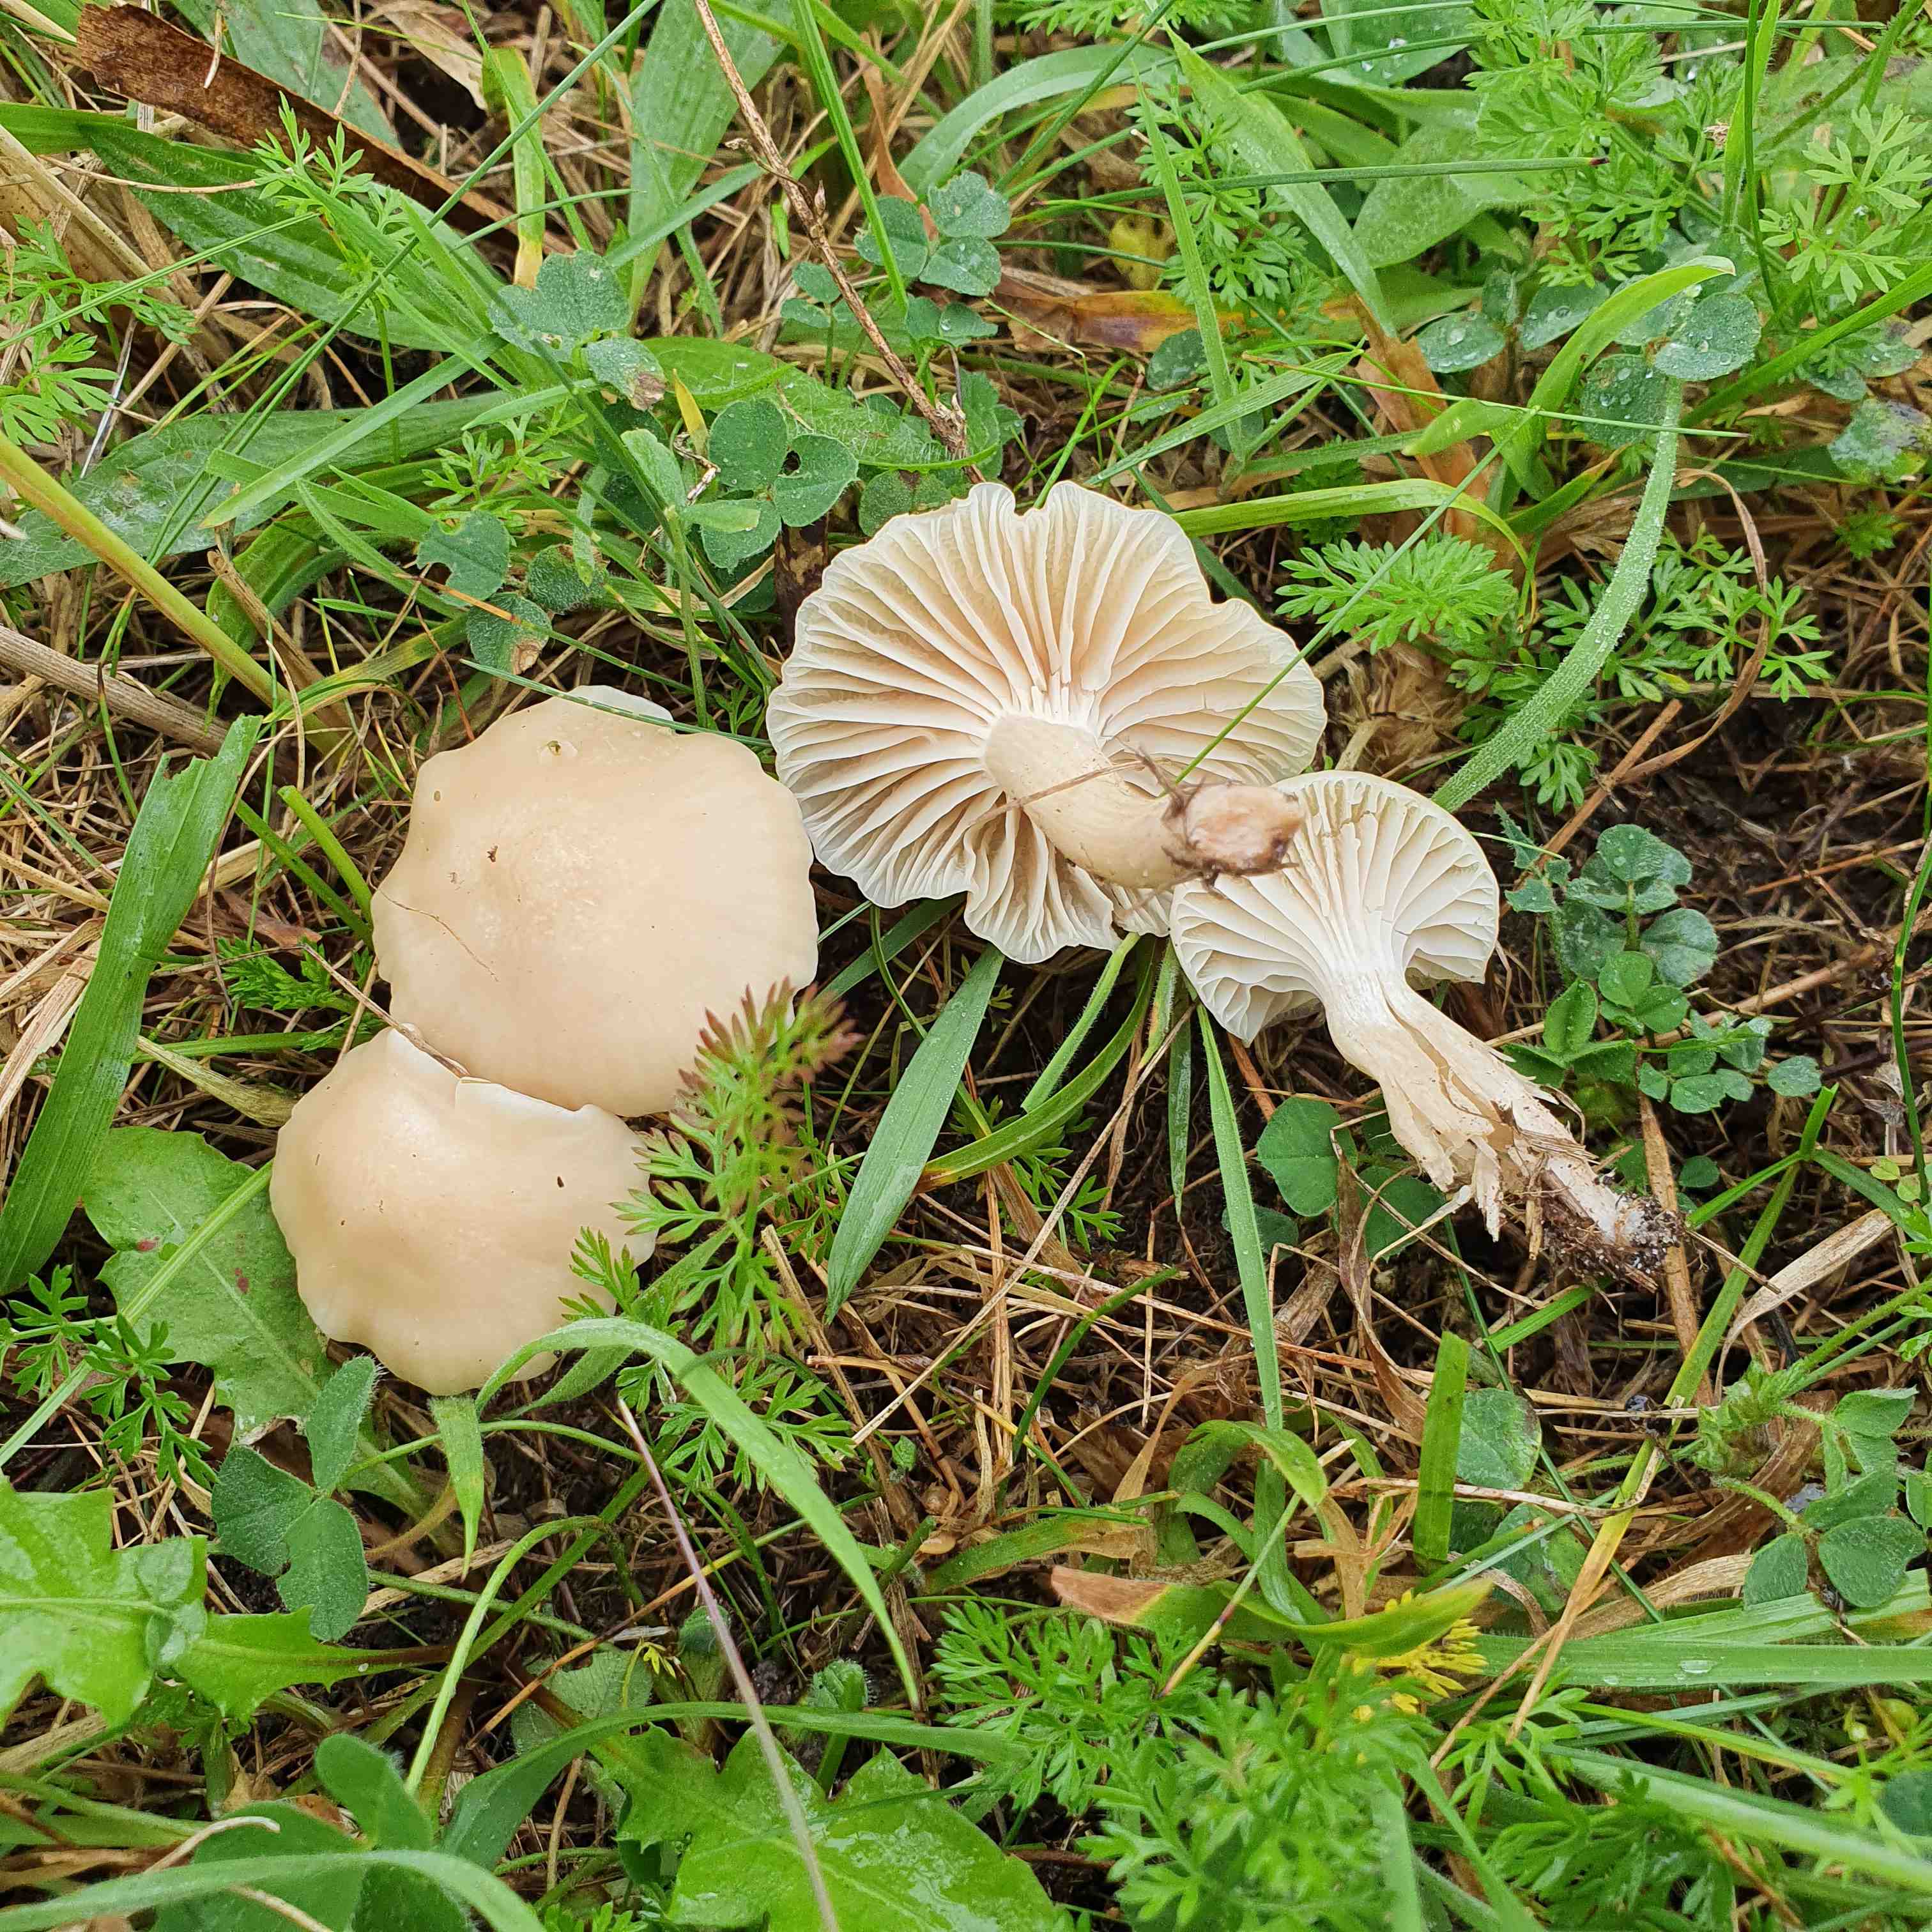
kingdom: Fungi
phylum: Basidiomycota
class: Agaricomycetes
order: Agaricales
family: Hygrophoraceae
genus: Cuphophyllus
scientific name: Cuphophyllus virgineus
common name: isabella-vokshat
